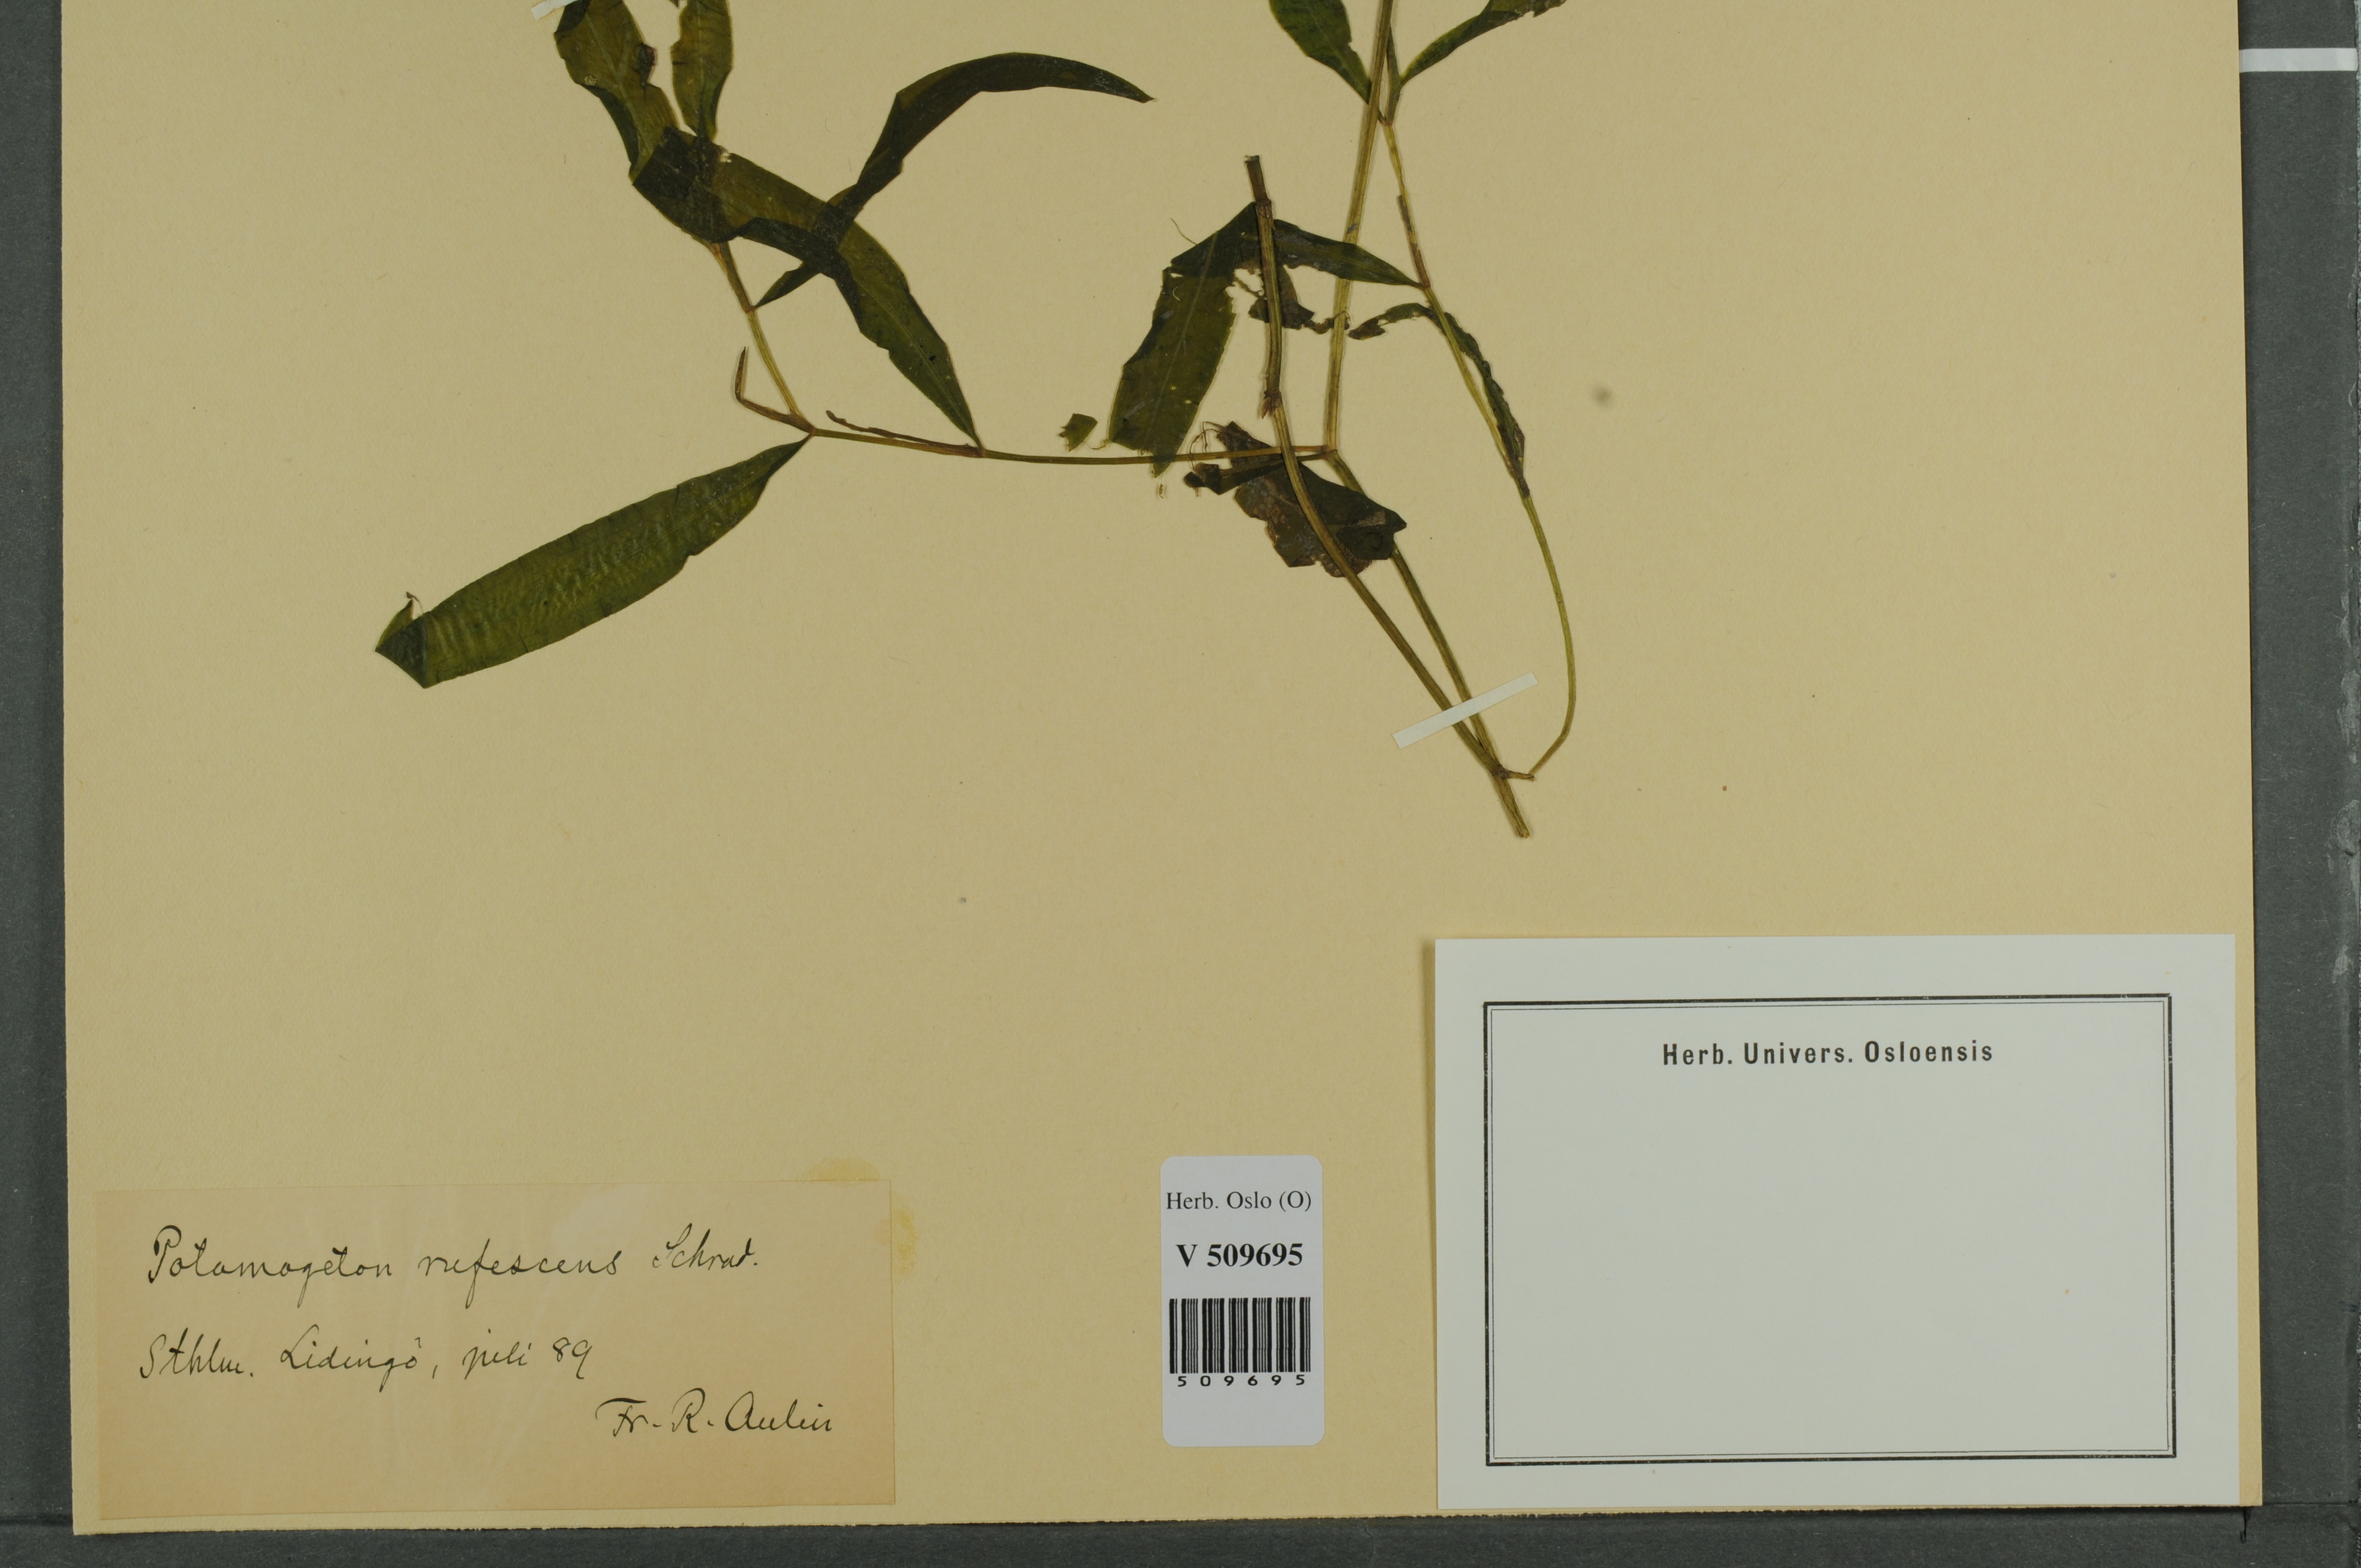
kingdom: Plantae
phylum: Tracheophyta
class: Liliopsida
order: Alismatales
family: Potamogetonaceae
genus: Potamogeton
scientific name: Potamogeton alpinus
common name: Red pondweed
